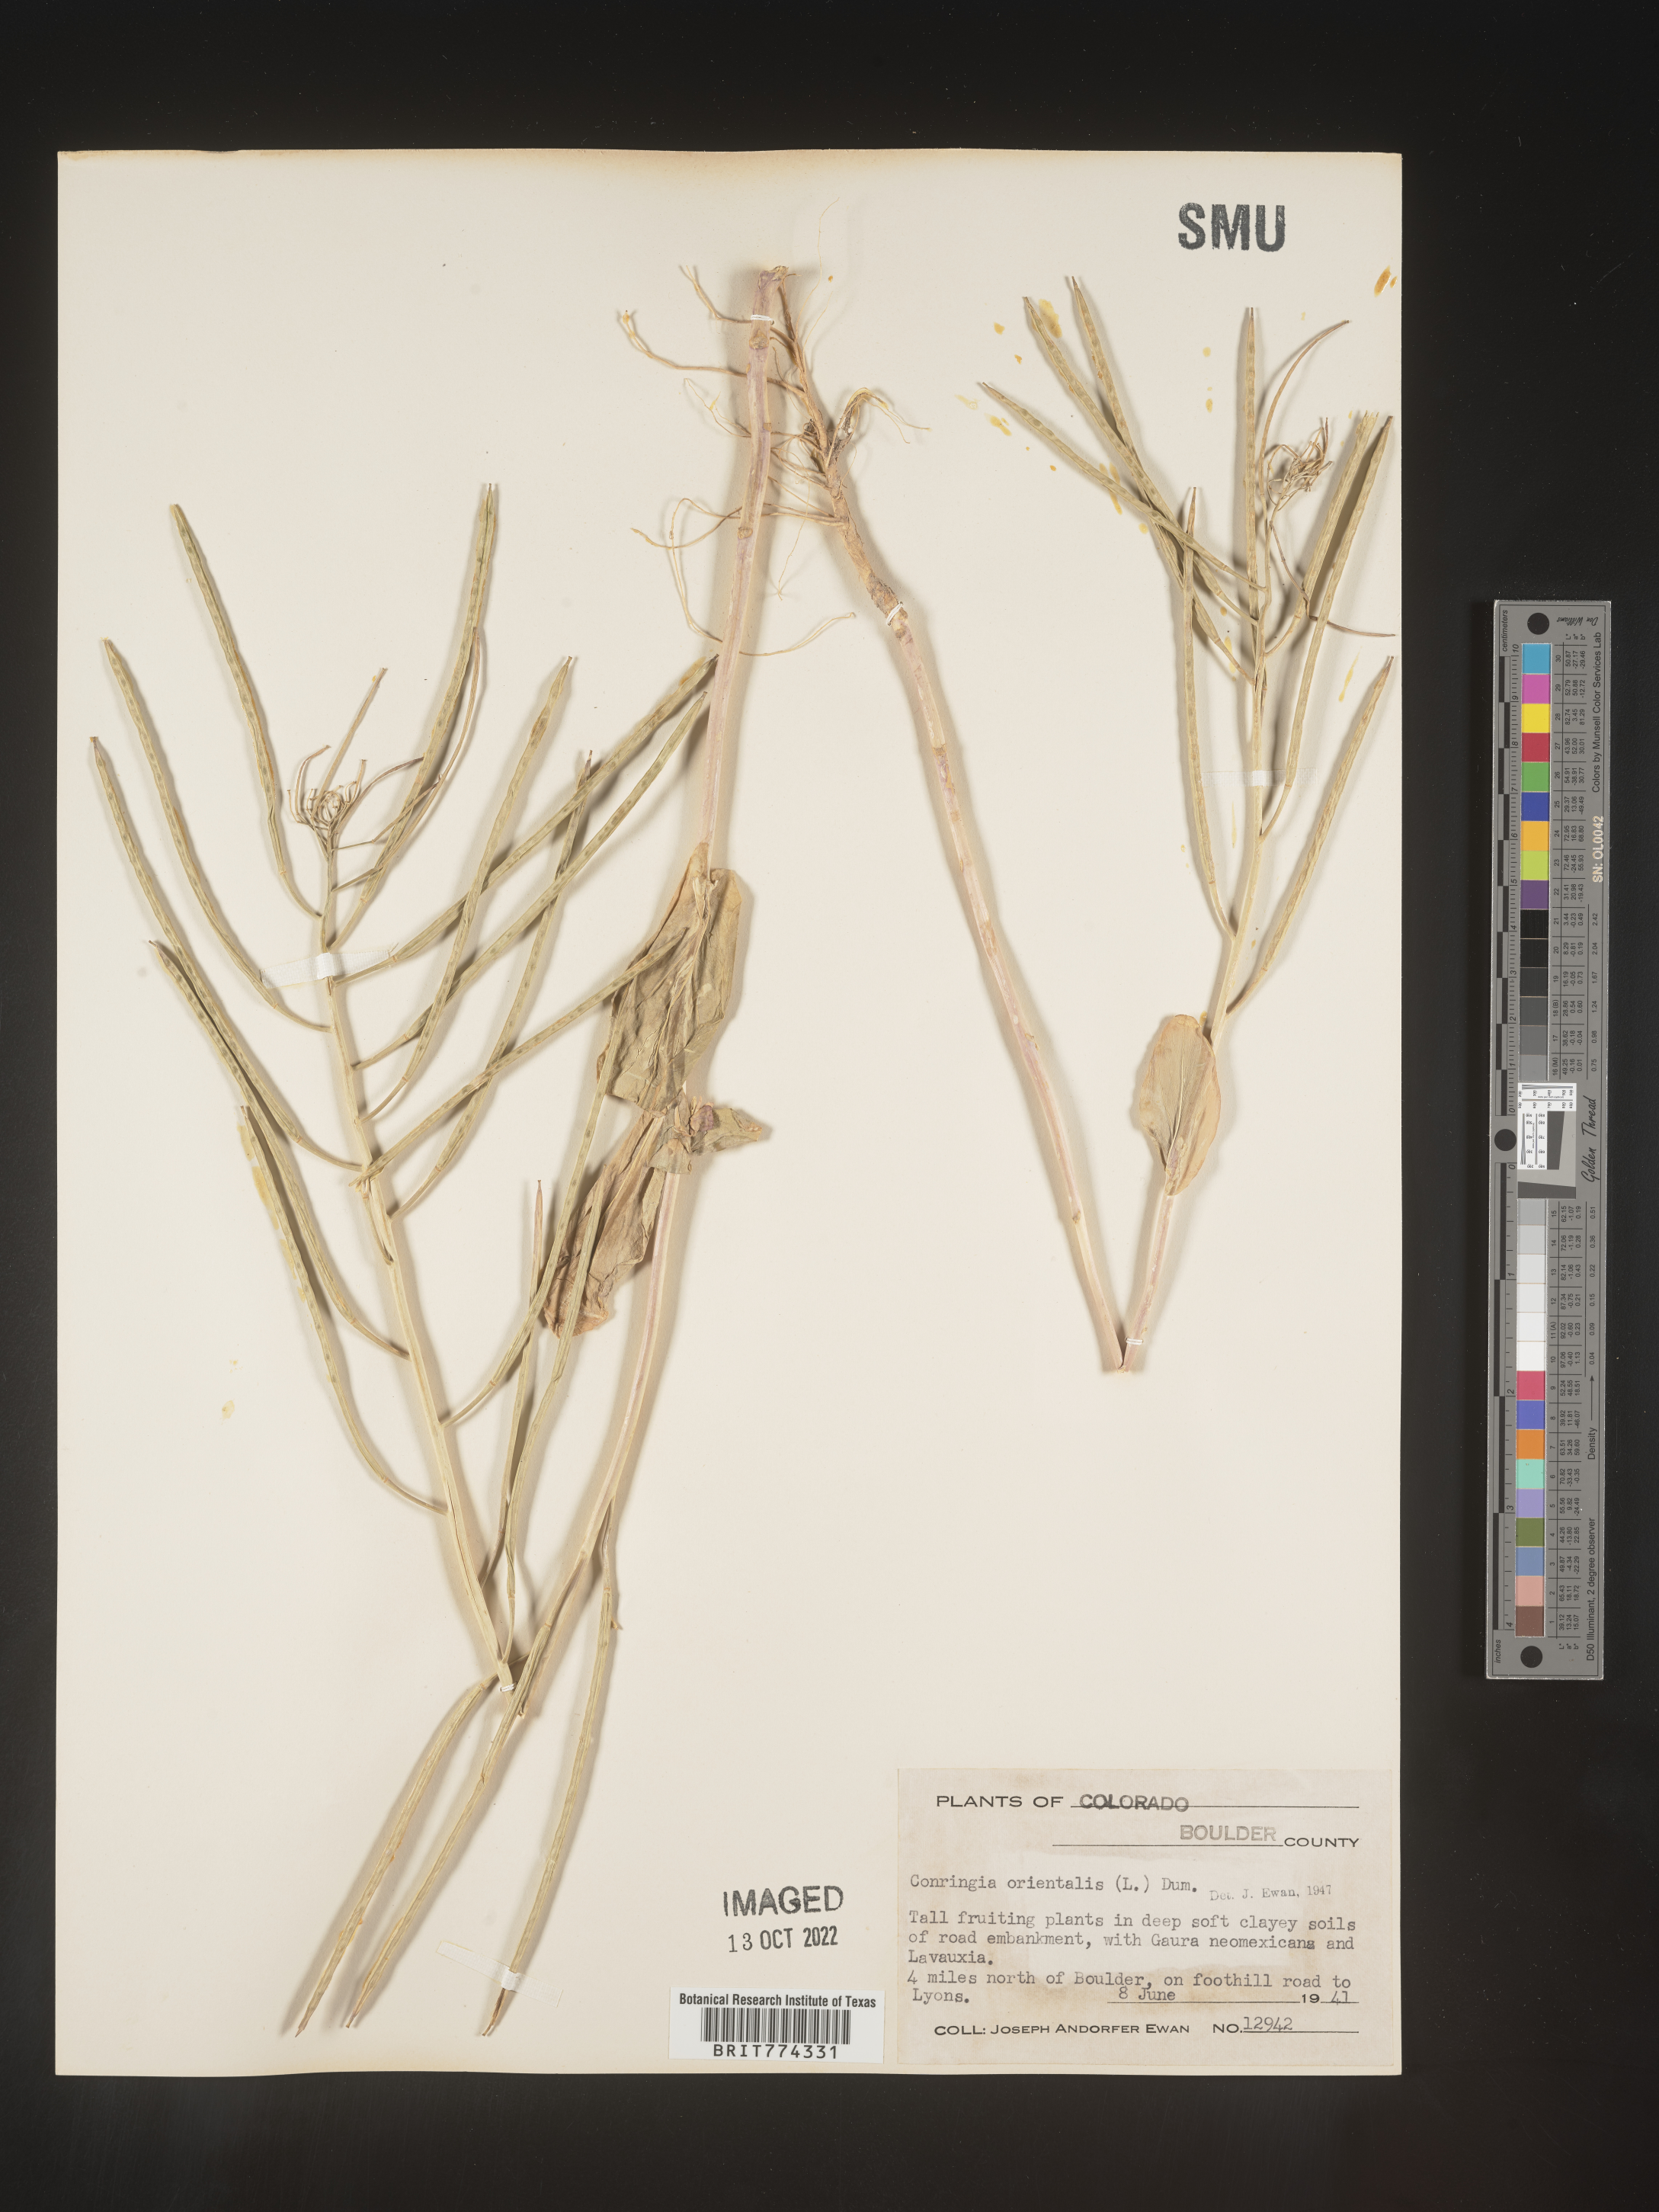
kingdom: Plantae
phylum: Tracheophyta
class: Magnoliopsida
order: Brassicales
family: Brassicaceae
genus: Conringia
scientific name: Conringia
